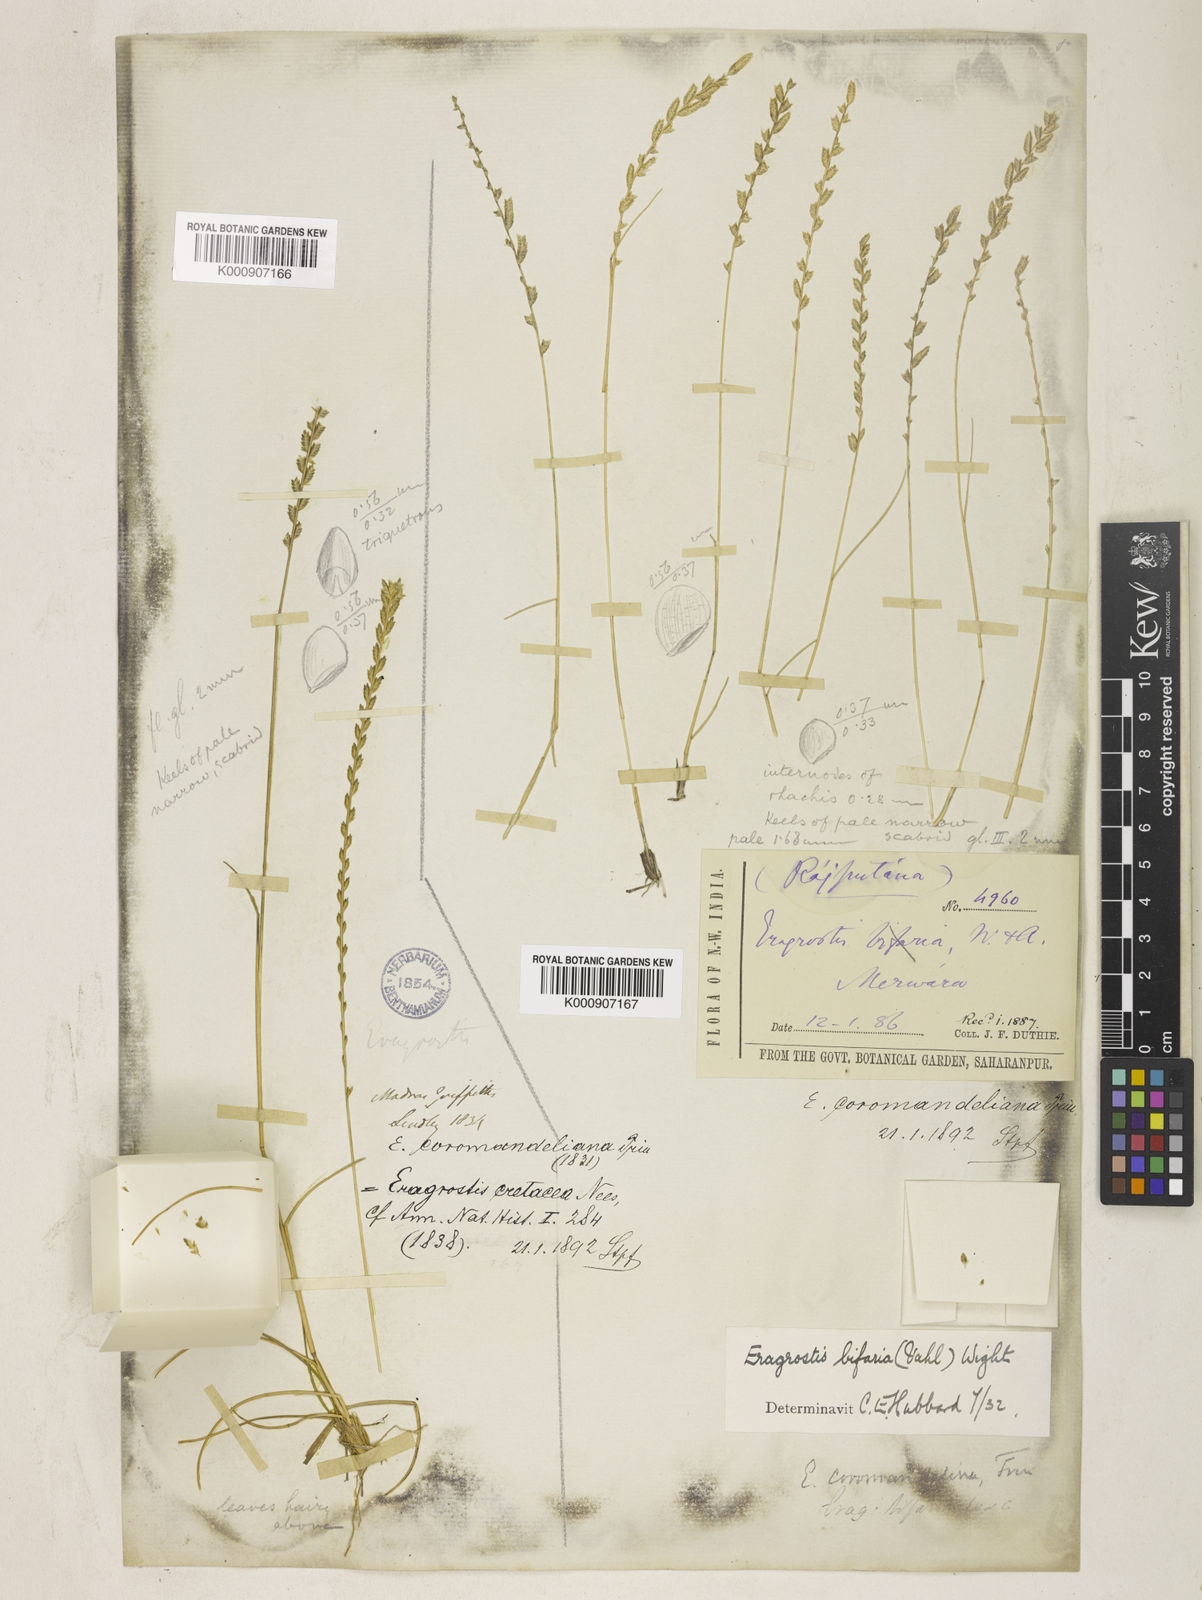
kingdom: Plantae
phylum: Tracheophyta
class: Liliopsida
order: Poales
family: Poaceae
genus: Eragrostiella
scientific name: Eragrostiella bifaria
